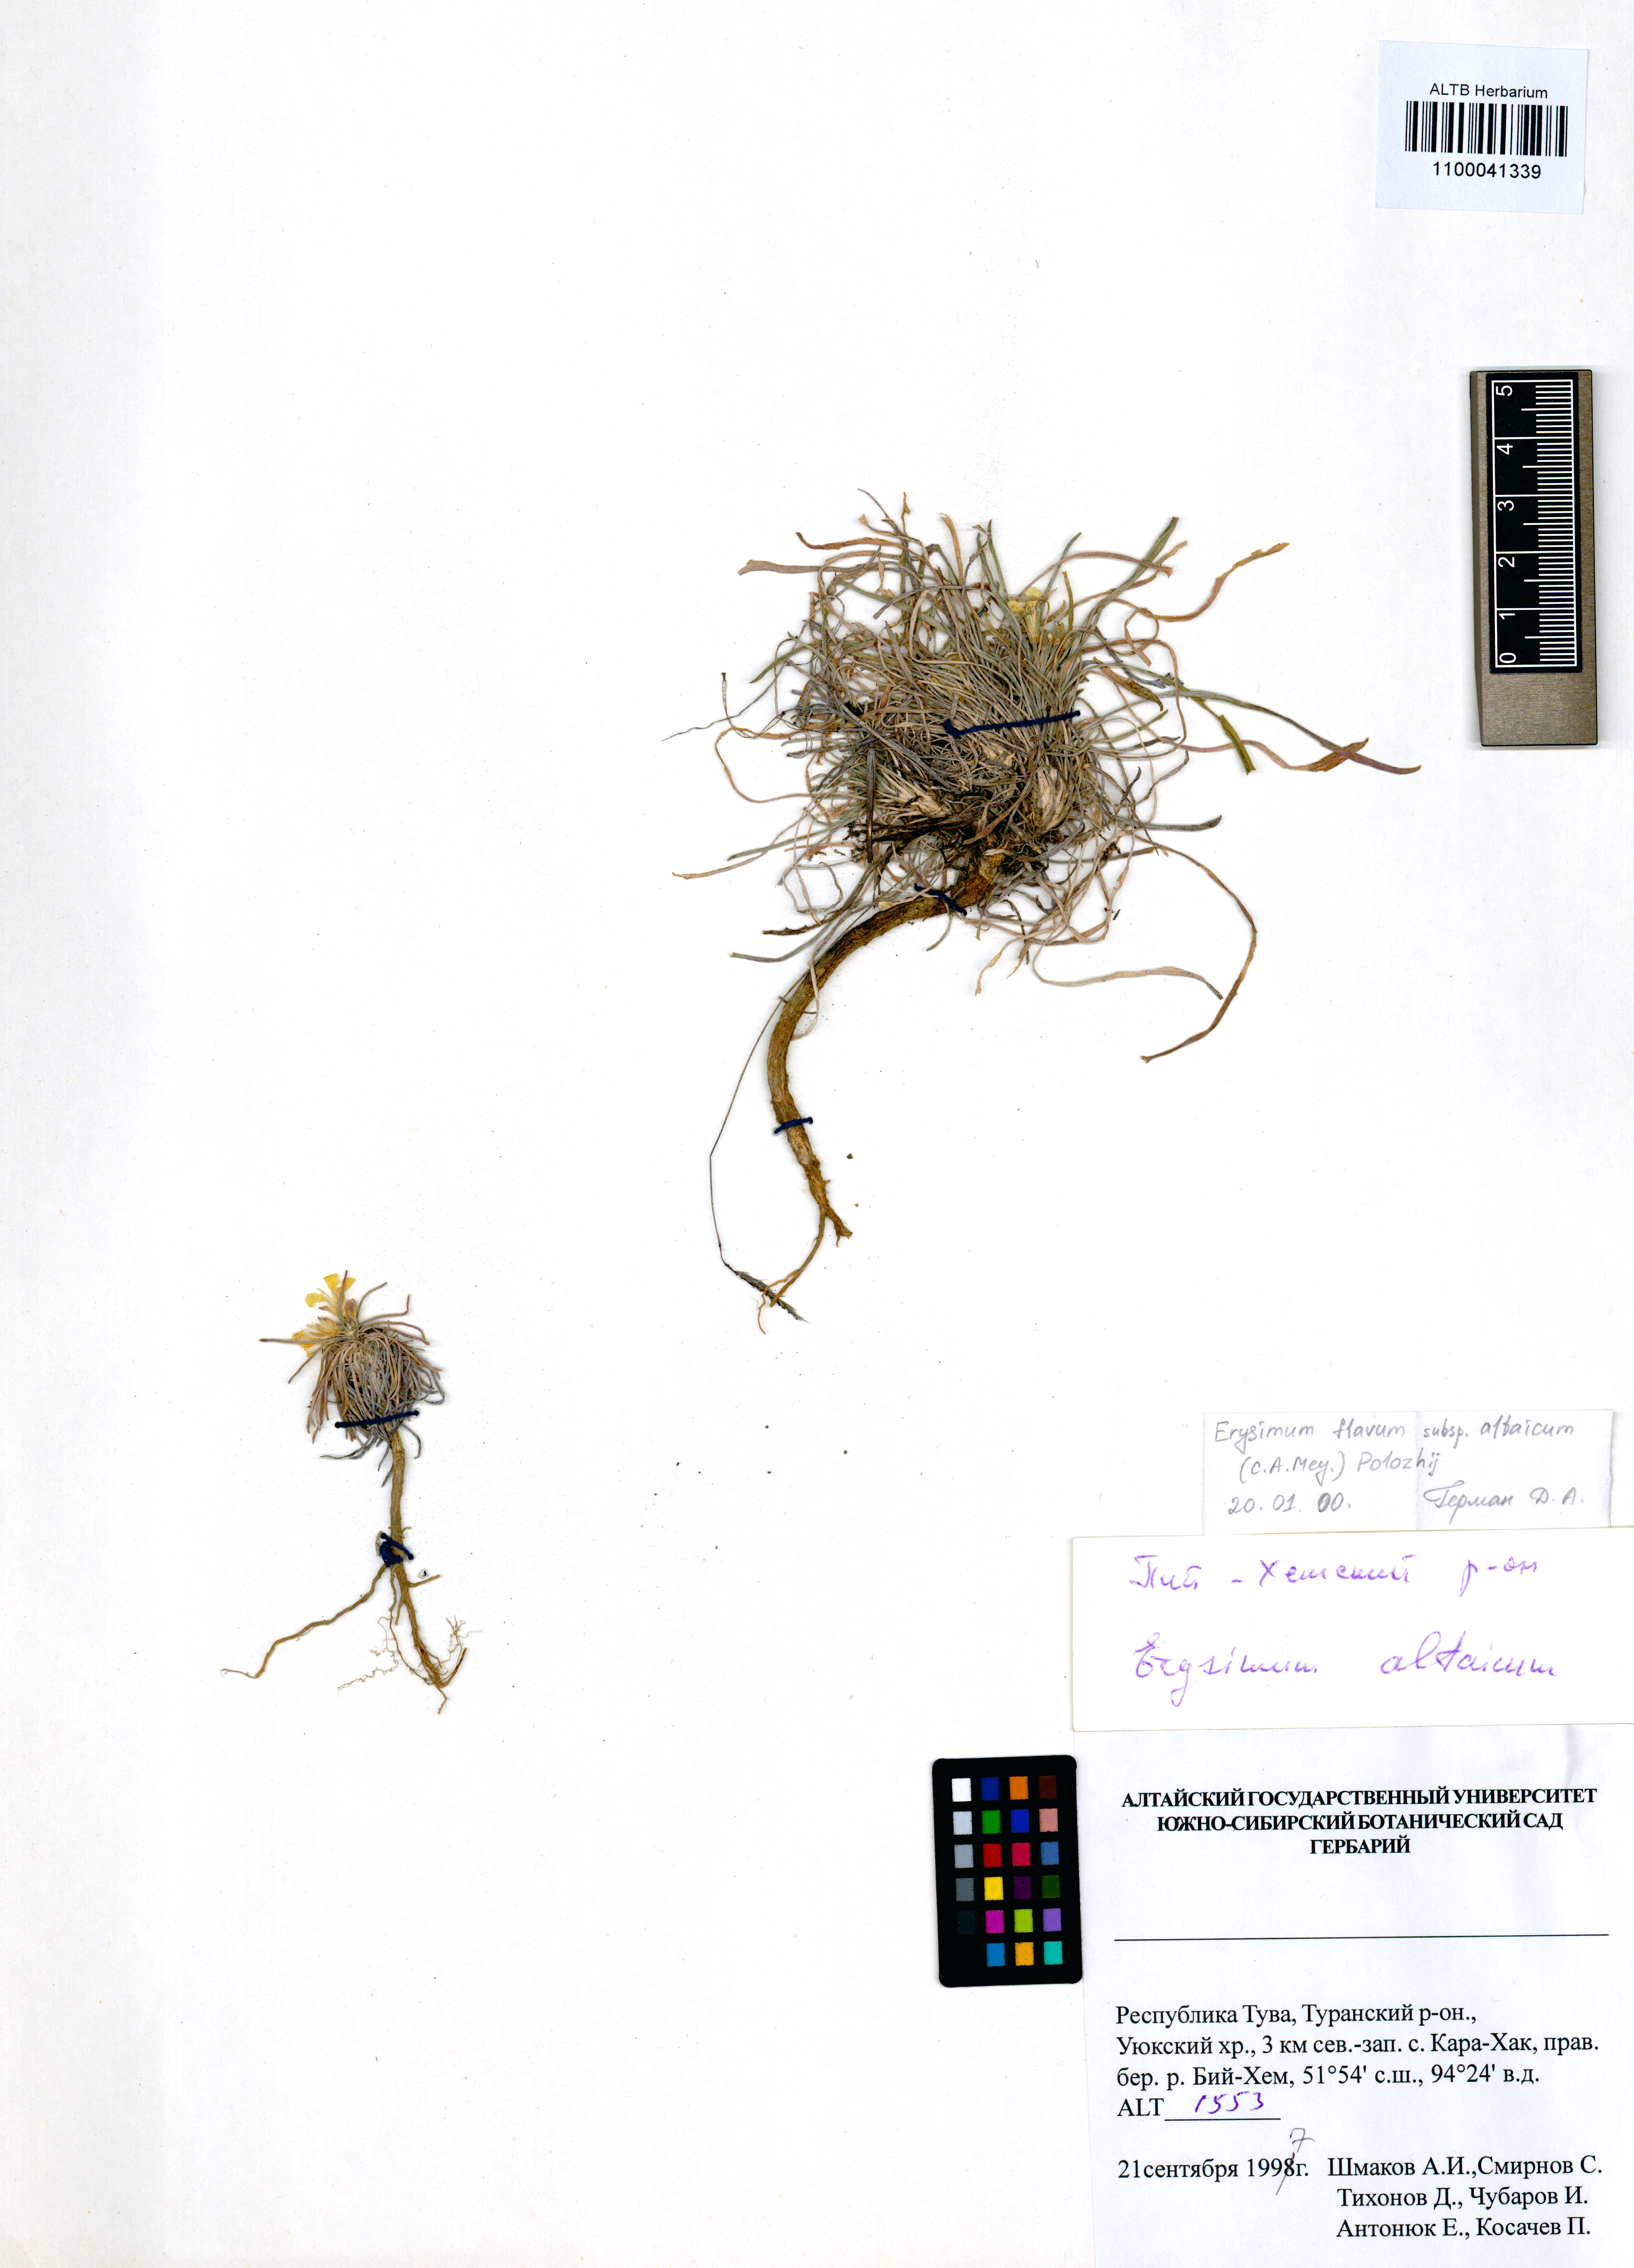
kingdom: Plantae
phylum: Tracheophyta
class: Magnoliopsida
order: Brassicales
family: Brassicaceae
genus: Erysimum
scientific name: Erysimum flavum
